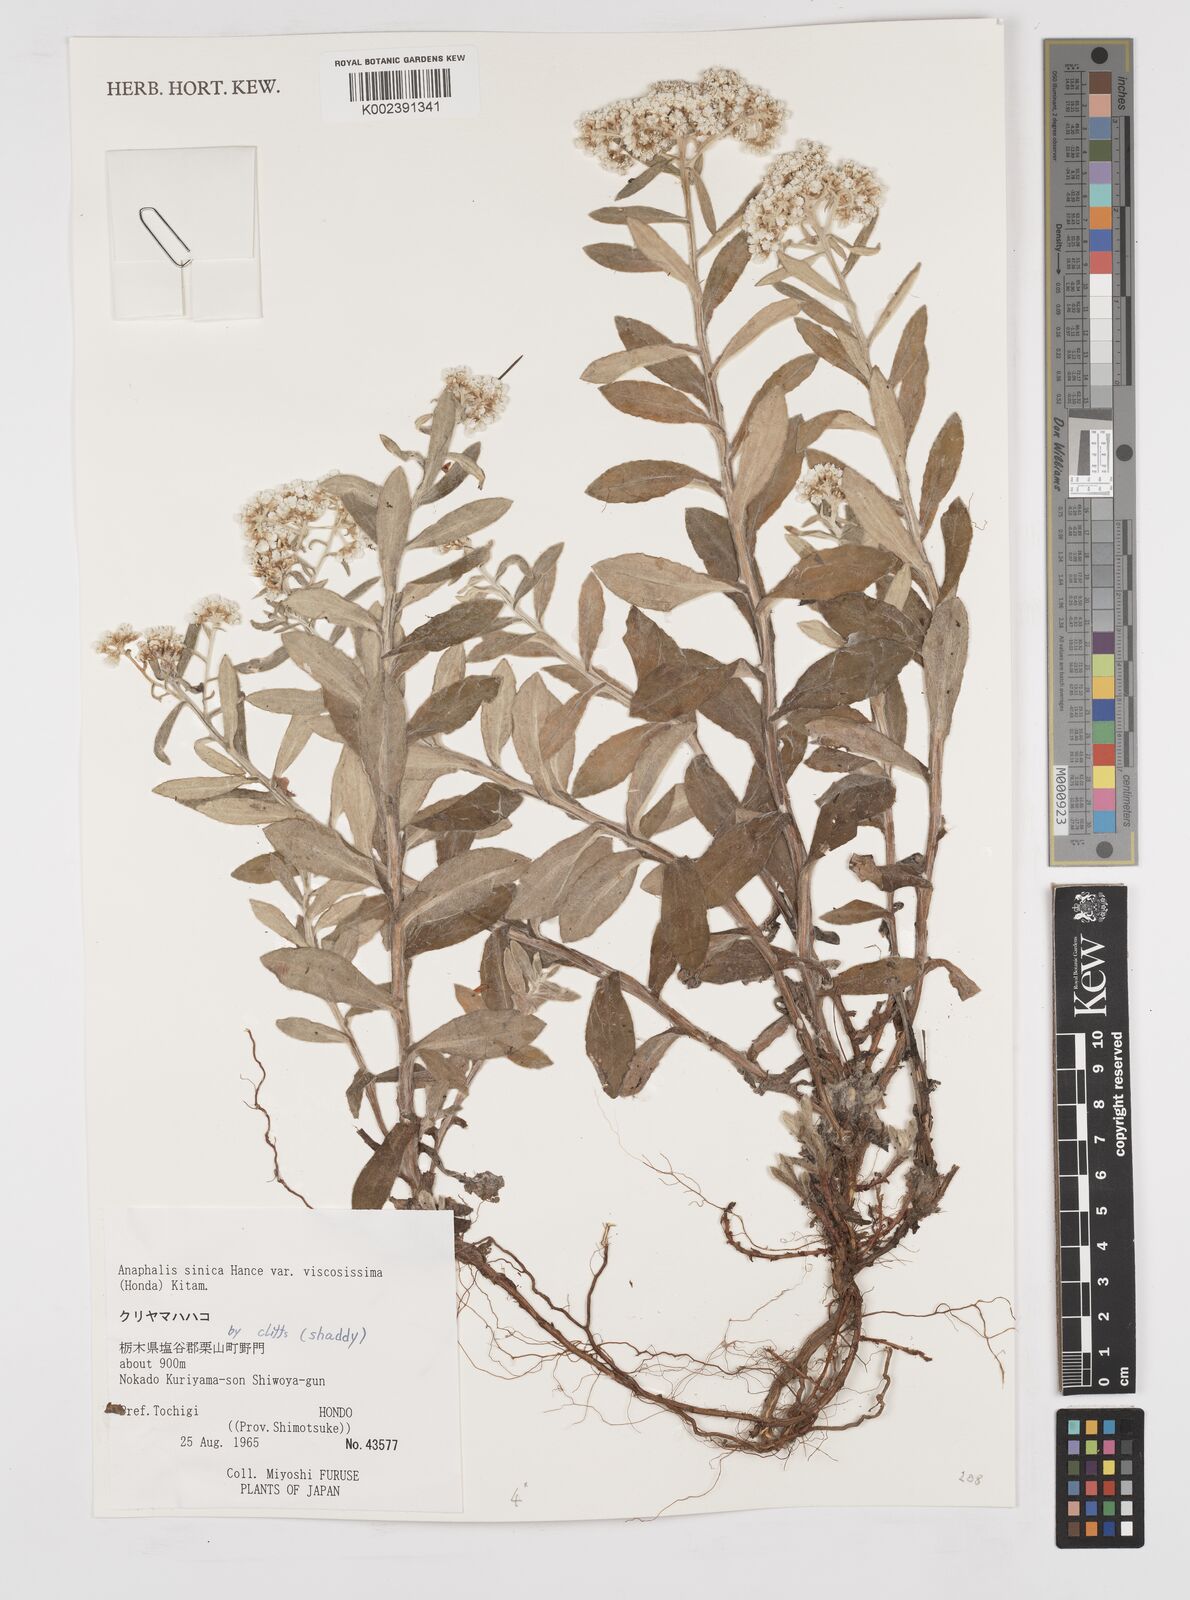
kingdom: Plantae
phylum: Tracheophyta
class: Magnoliopsida
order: Asterales
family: Asteraceae
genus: Anaphalis
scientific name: Anaphalis sinica
